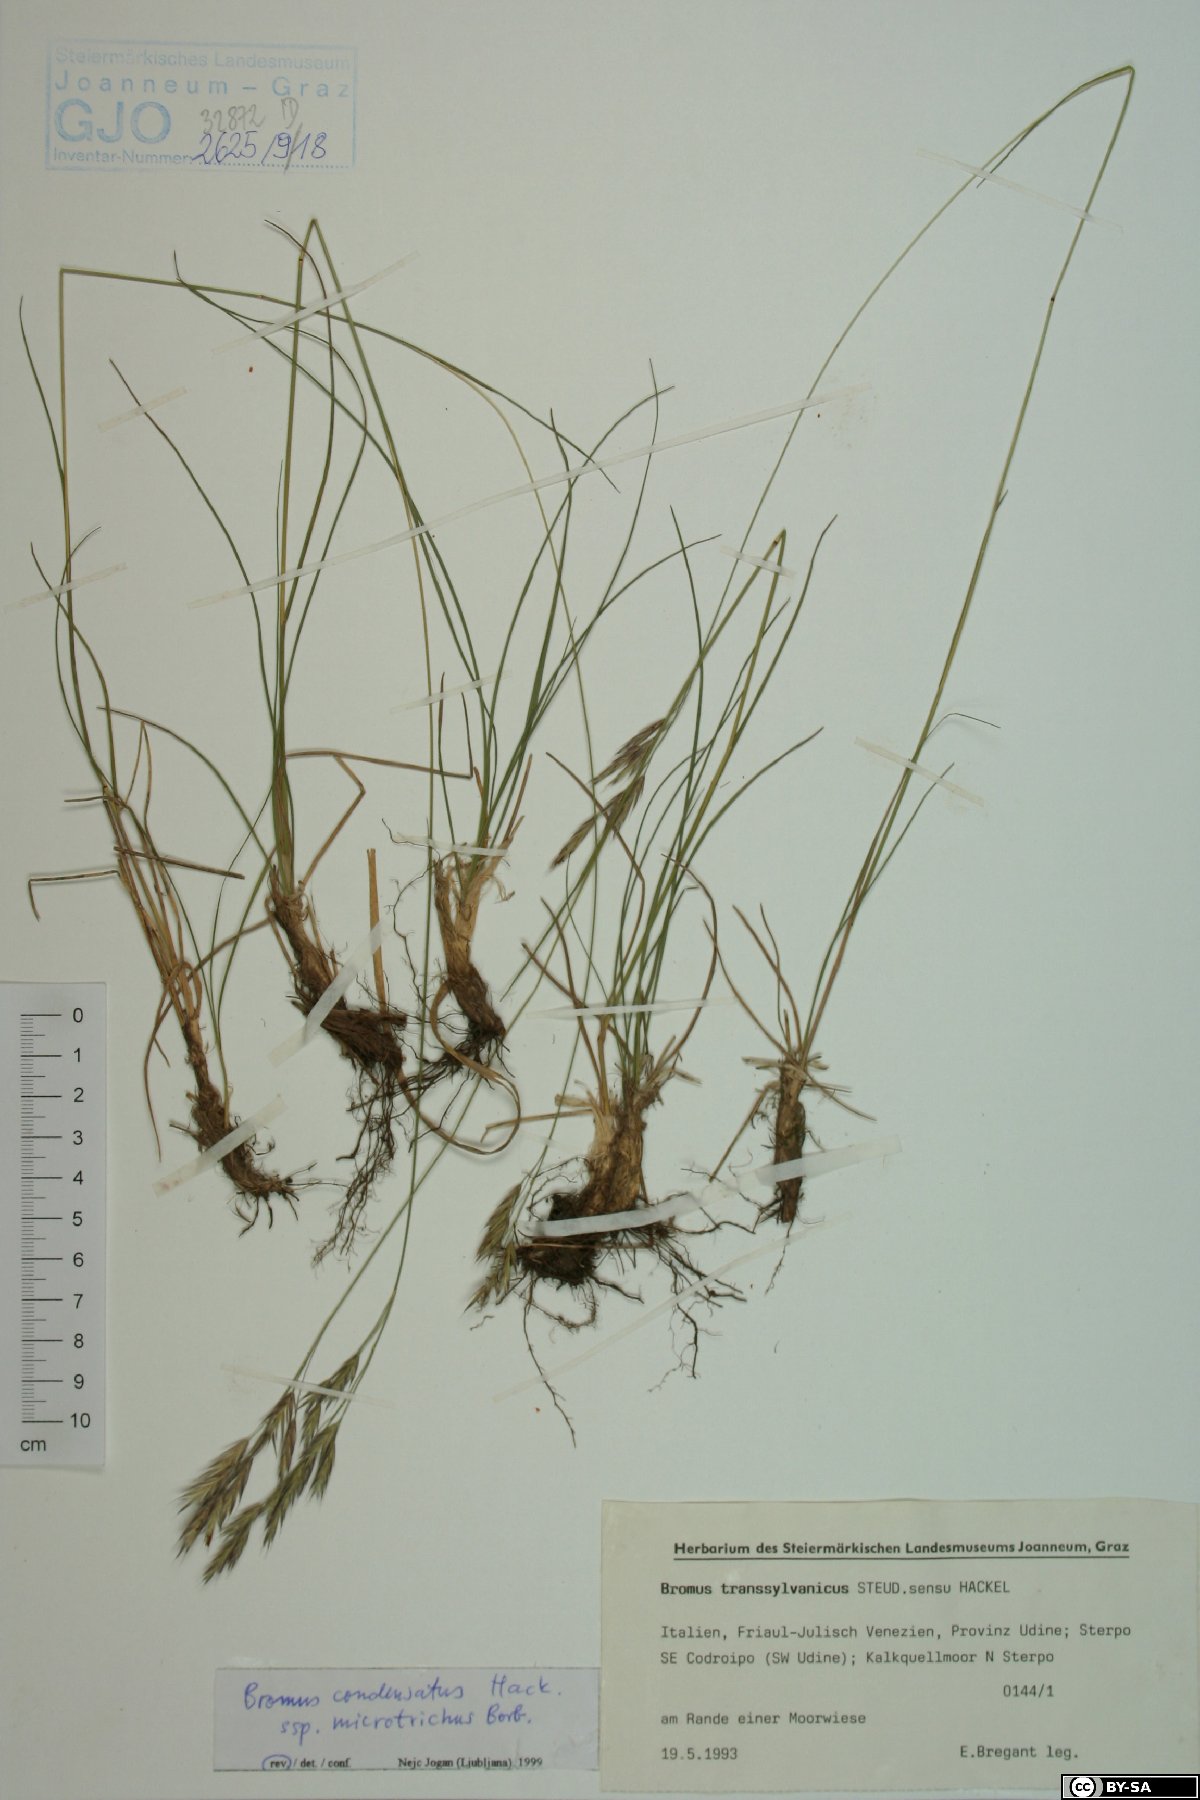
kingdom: Plantae
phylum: Tracheophyta
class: Liliopsida
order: Poales
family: Poaceae
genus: Bromus
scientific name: Bromus condensatus
